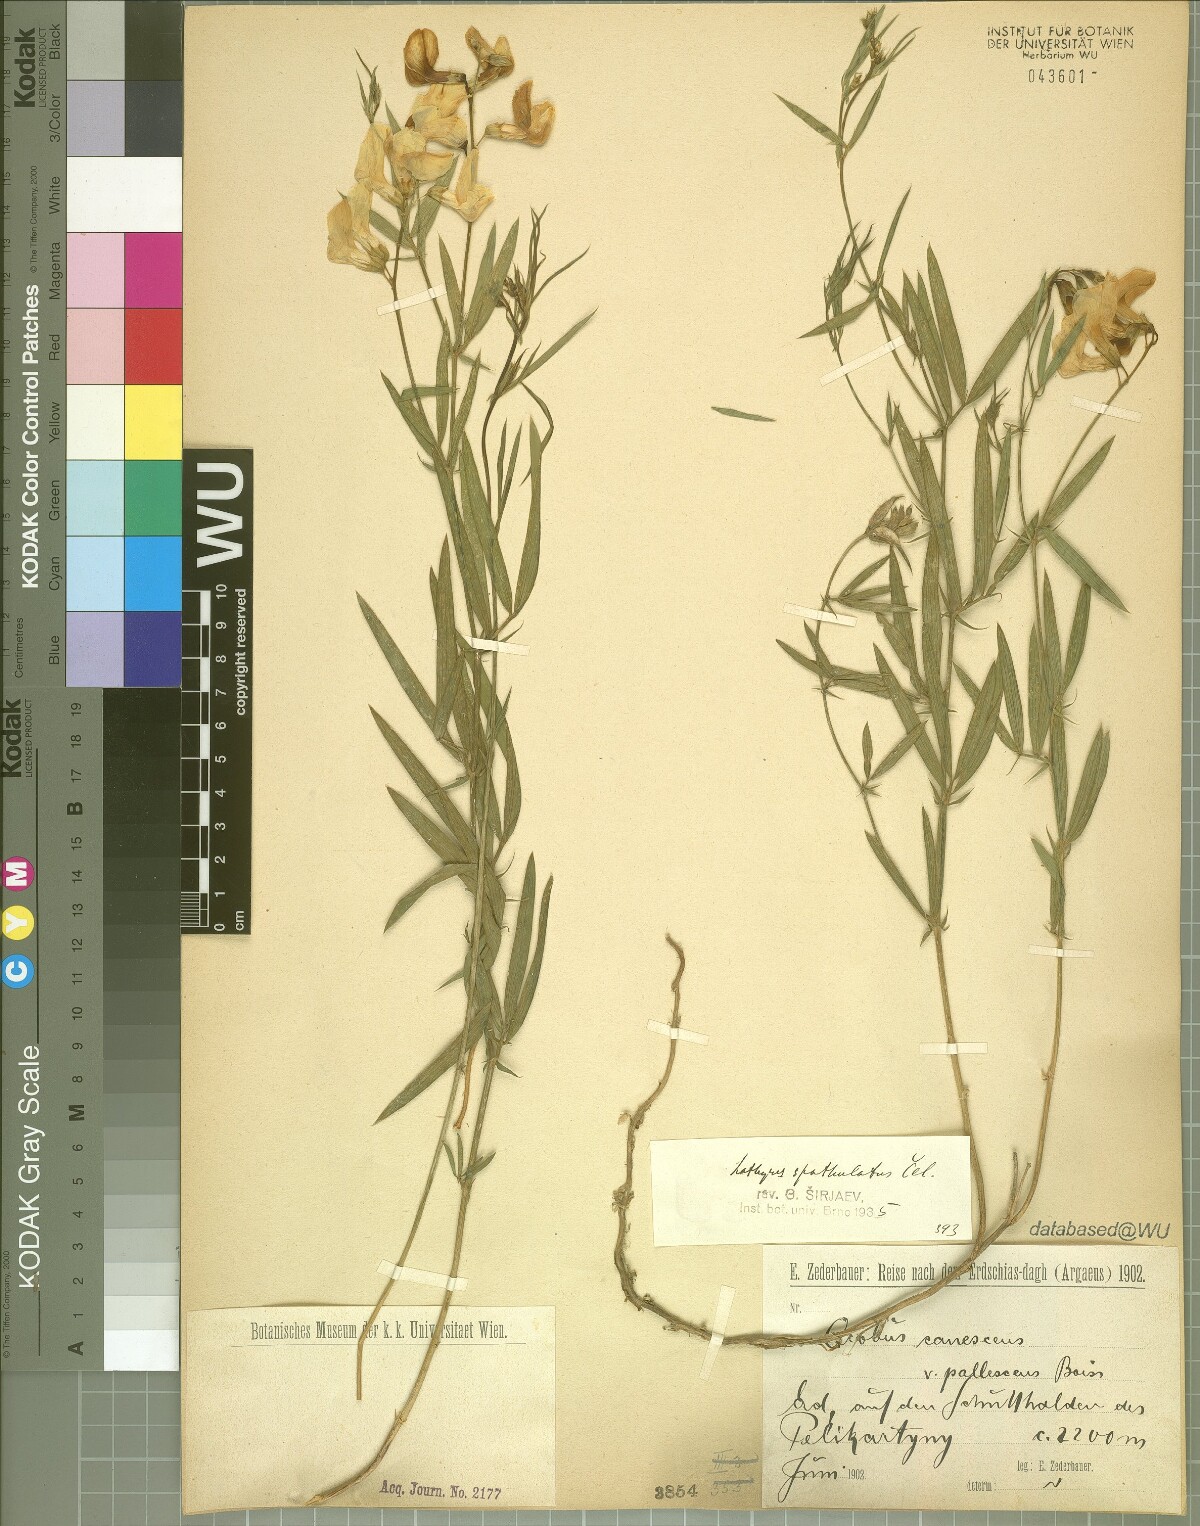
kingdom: Plantae
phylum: Tracheophyta
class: Magnoliopsida
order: Fabales
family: Fabaceae
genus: Lathyrus
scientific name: Lathyrus spathulatus
